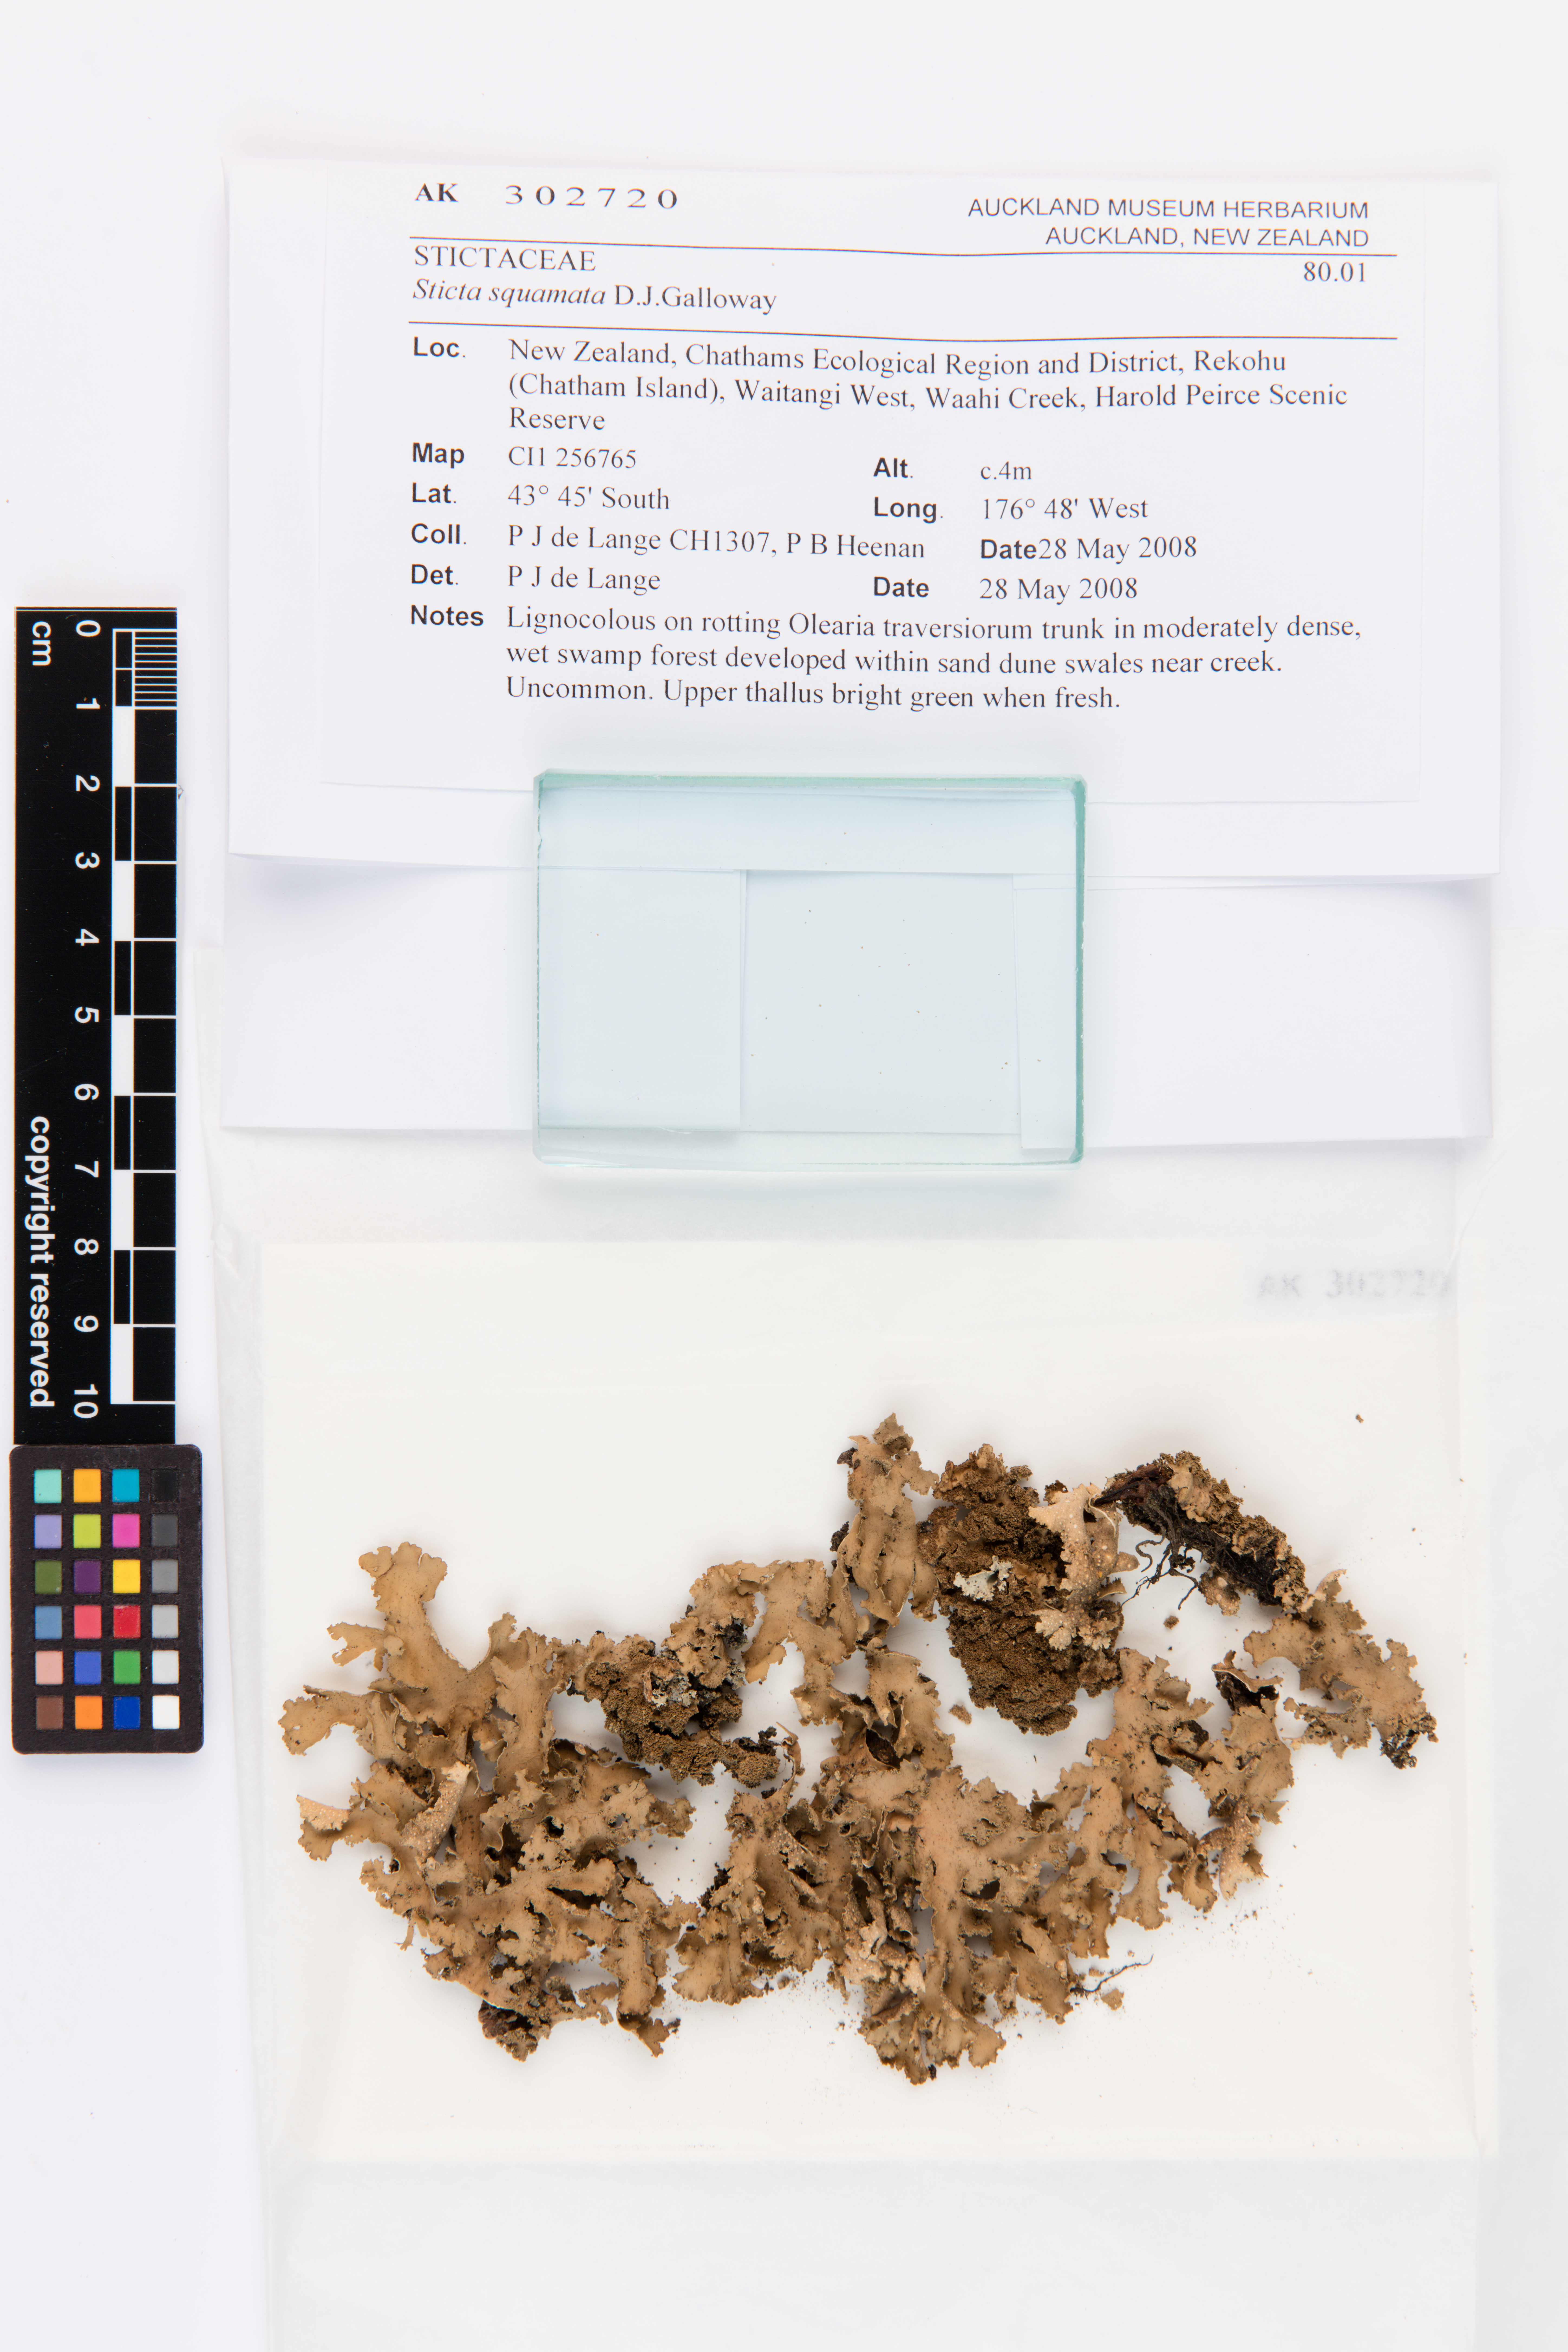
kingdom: Fungi
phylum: Ascomycota
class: Lecanoromycetes
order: Peltigerales
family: Lobariaceae
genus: Sticta
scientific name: Sticta squamata
